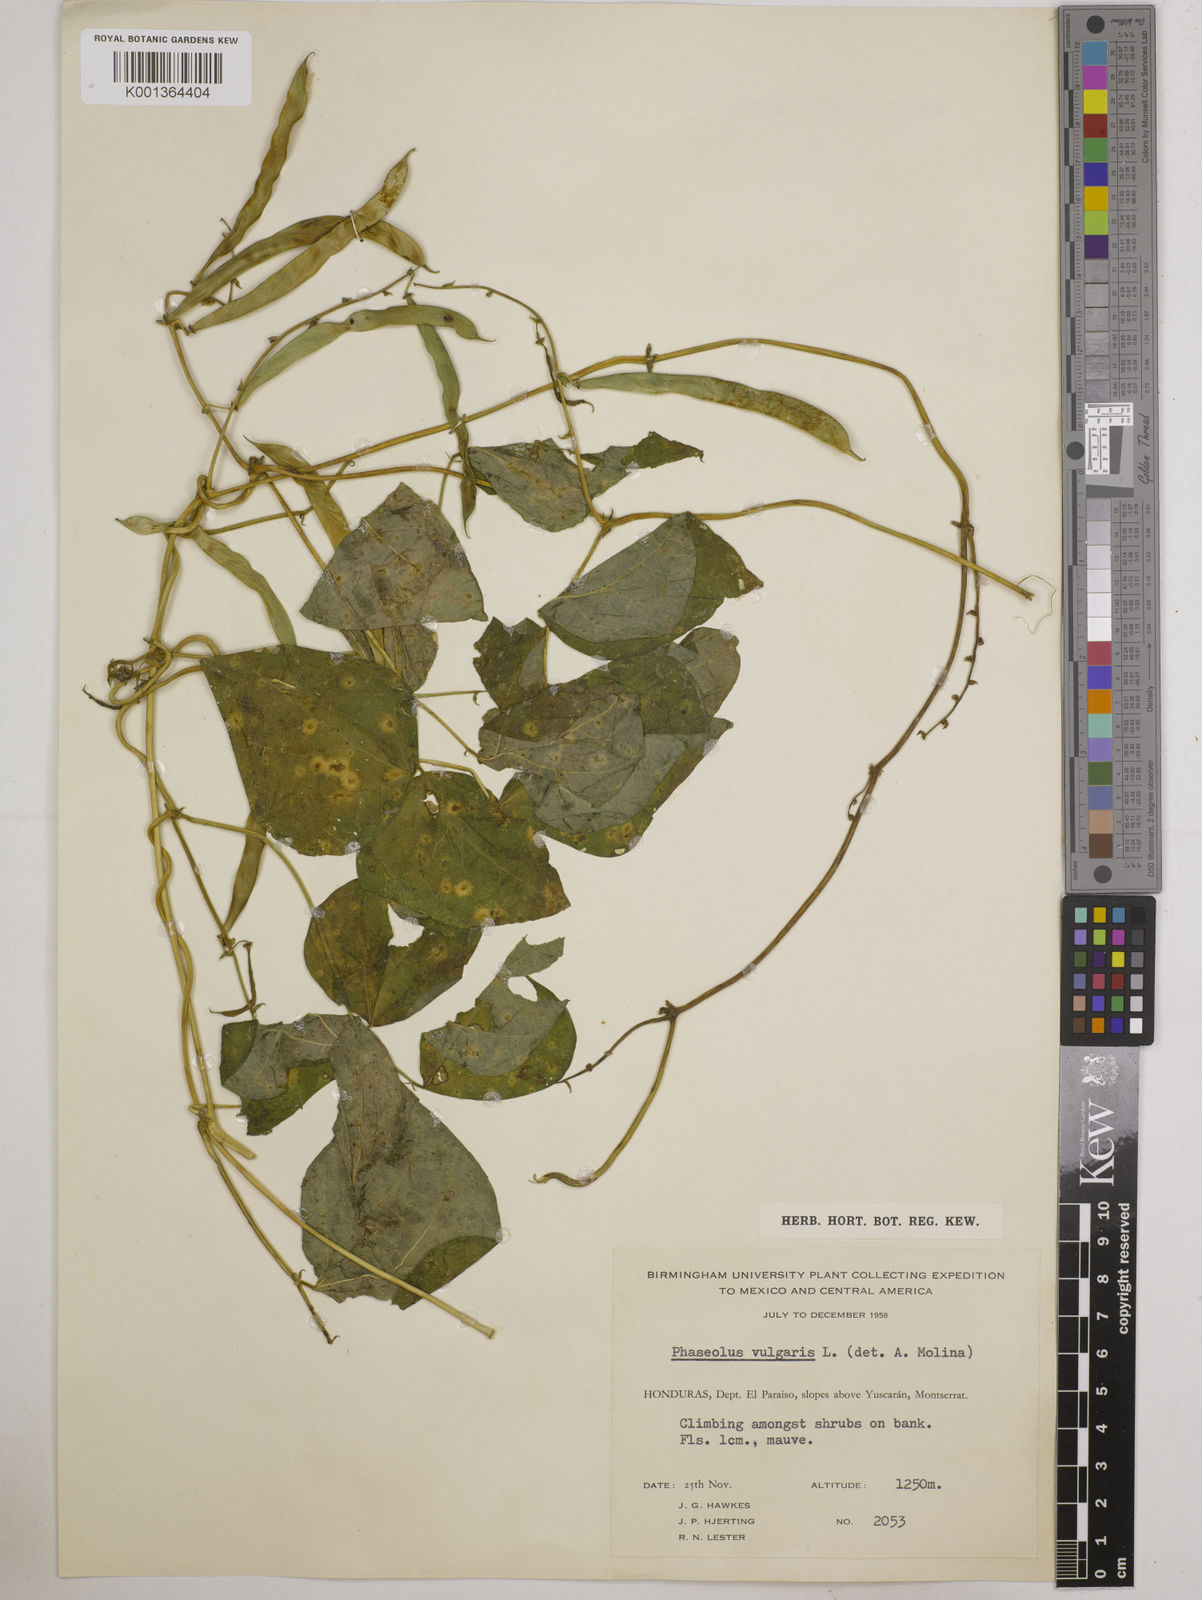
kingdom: Plantae
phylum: Tracheophyta
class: Magnoliopsida
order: Fabales
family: Fabaceae
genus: Phaseolus
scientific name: Phaseolus vulgaris
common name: Bean
